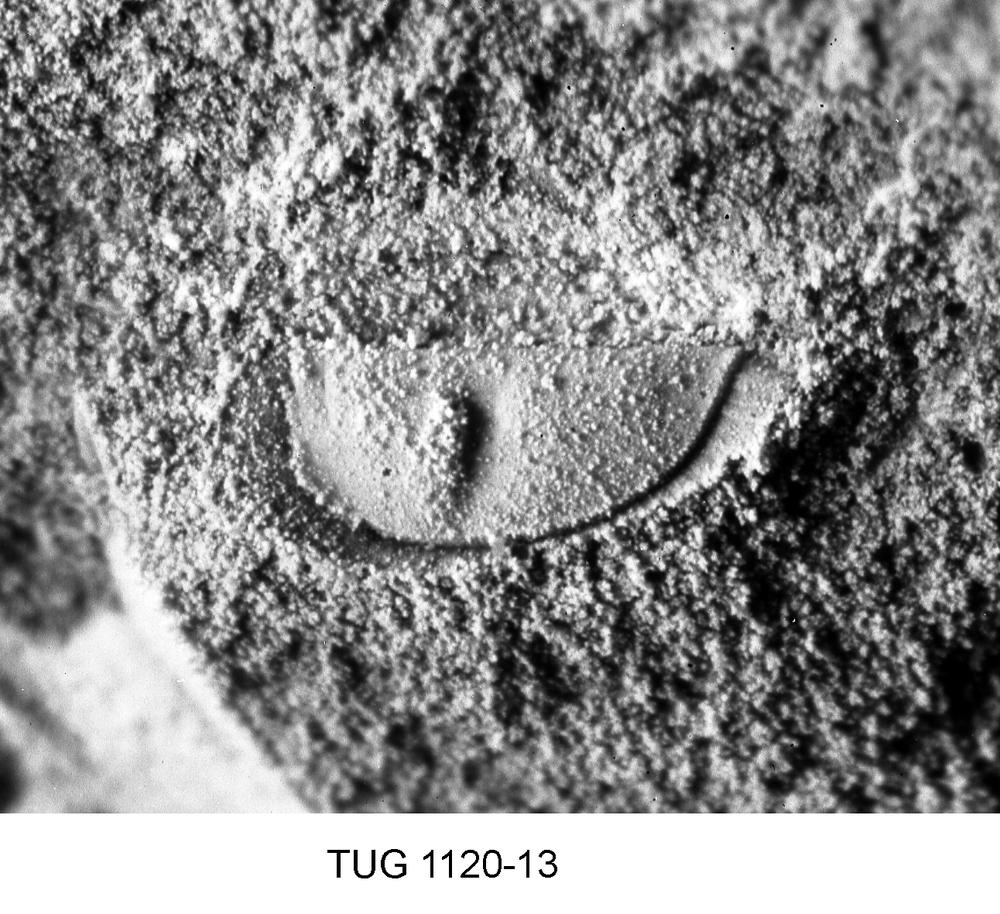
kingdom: Animalia
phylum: Arthropoda
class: Ostracoda
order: Palaeocopida
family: Oepikiidae
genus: Oepikium
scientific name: Oepikium
